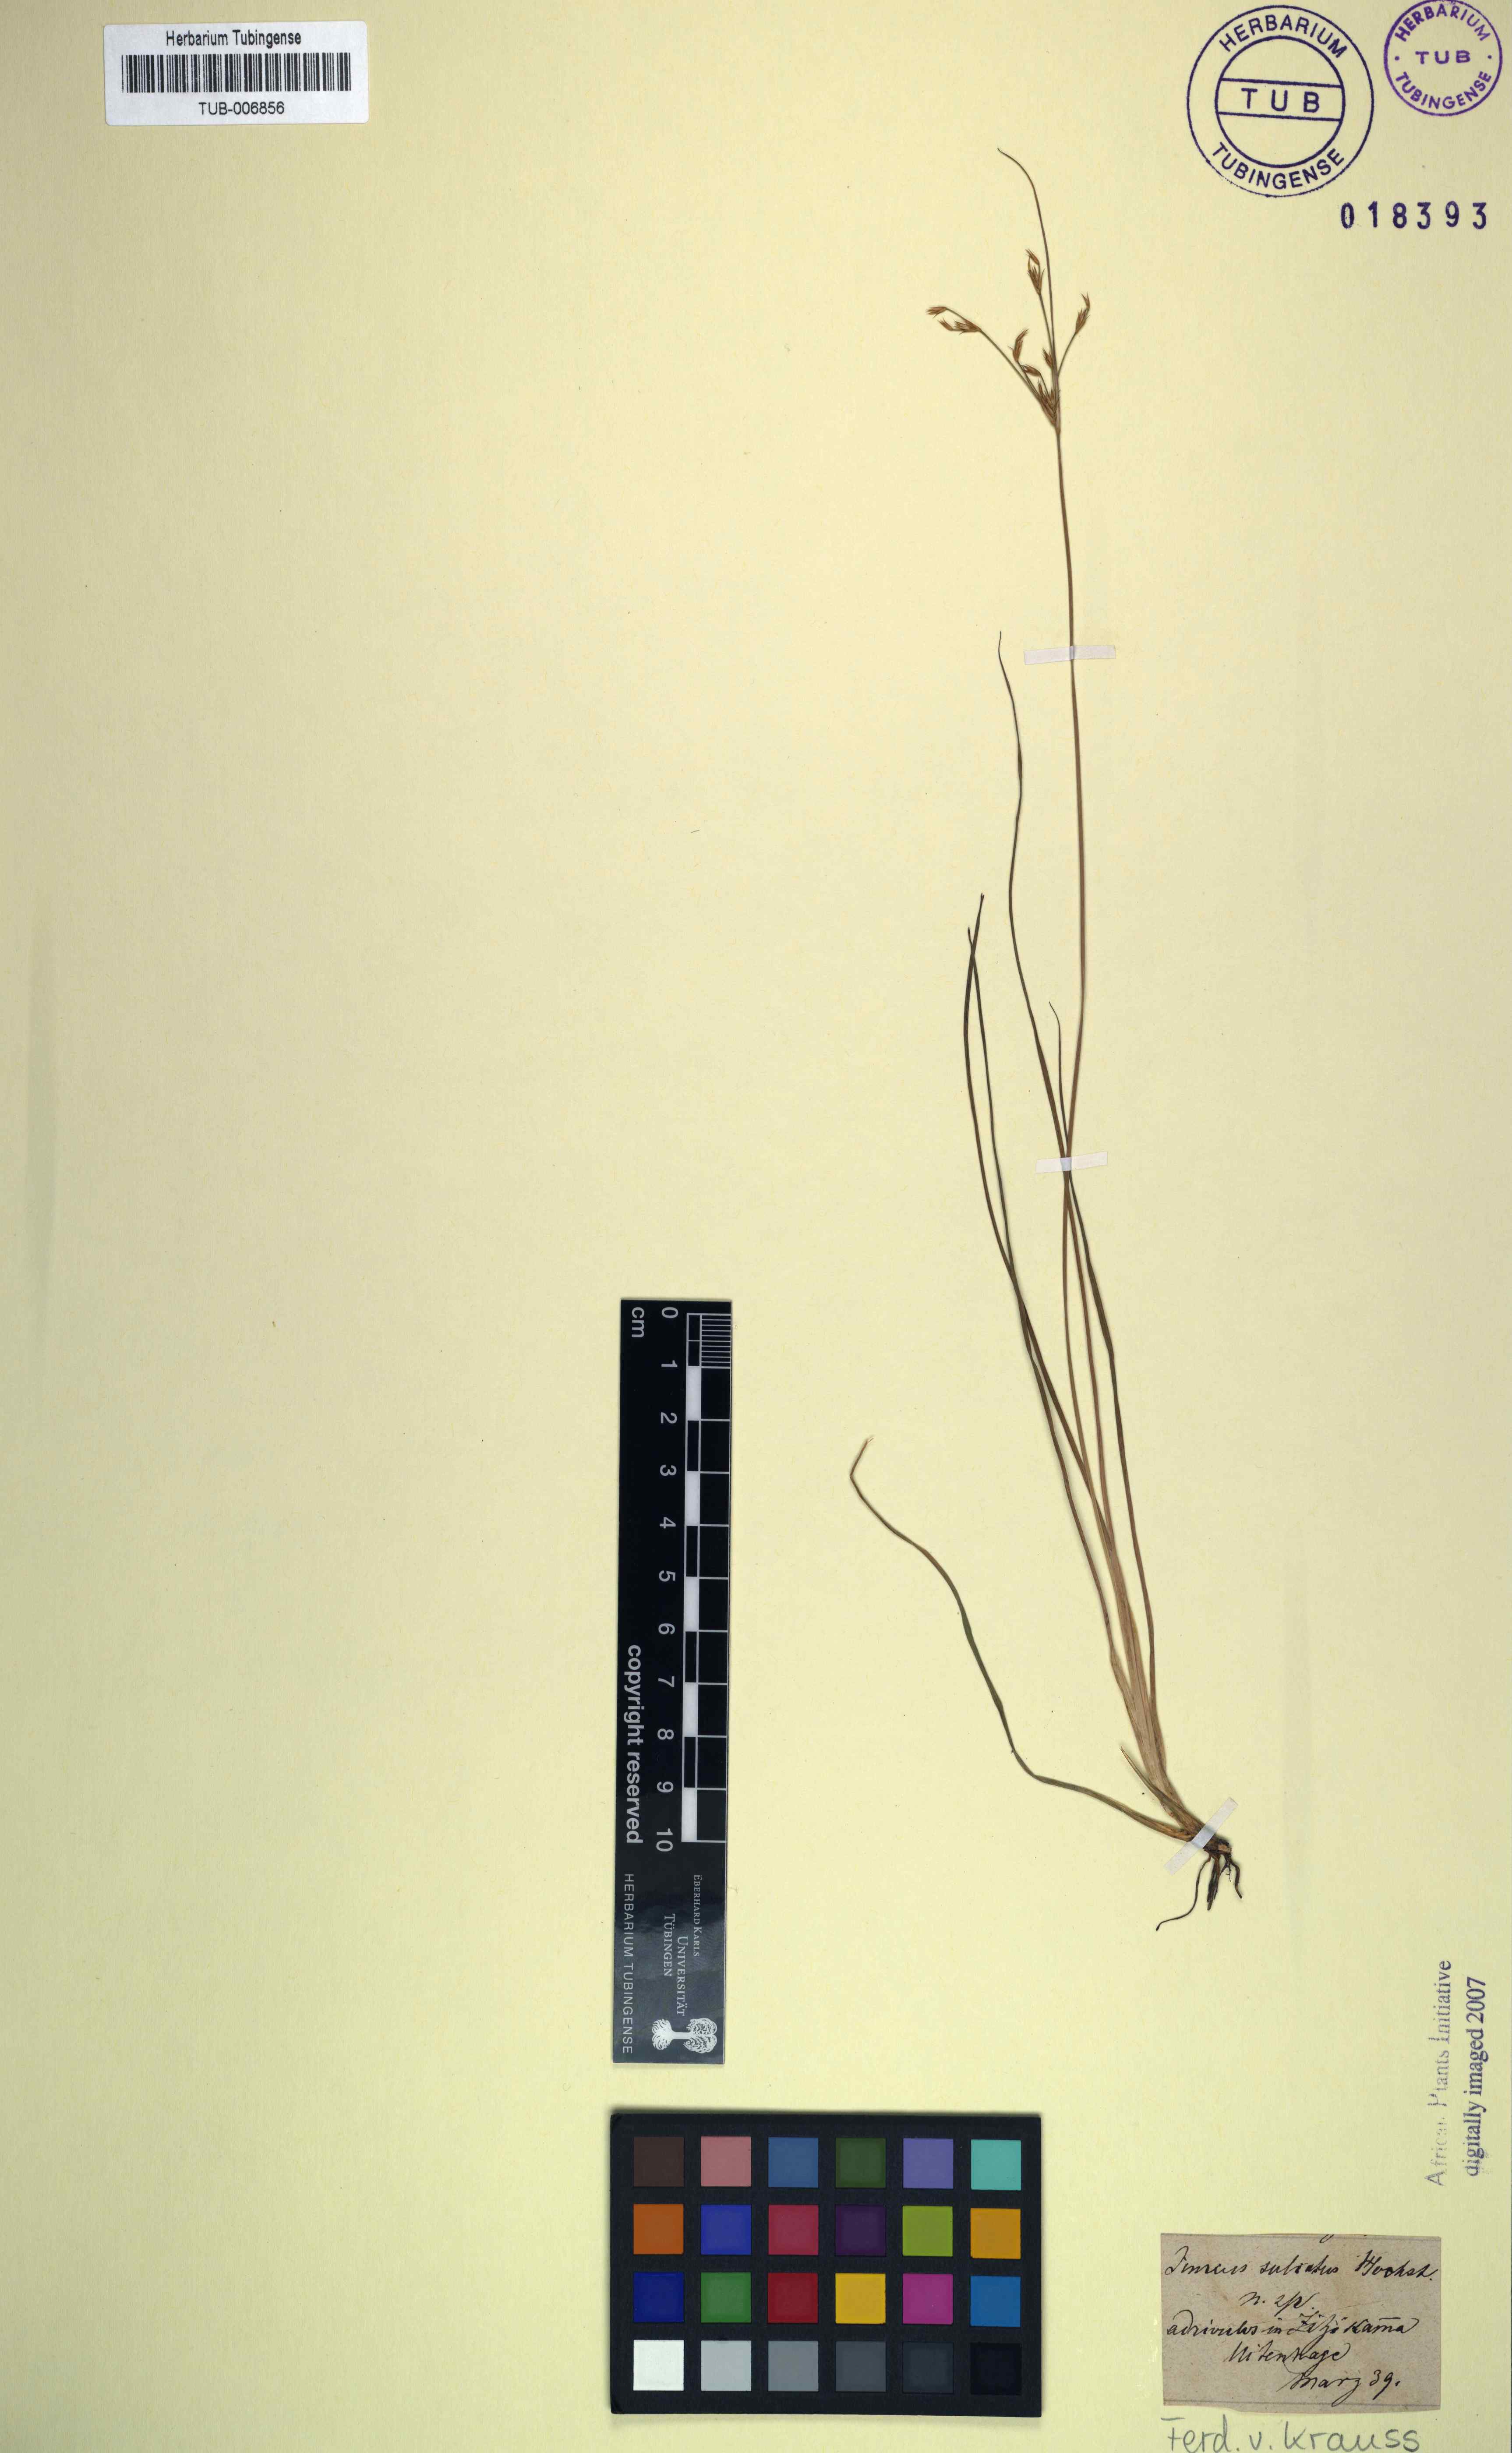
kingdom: Plantae
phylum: Tracheophyta
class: Liliopsida
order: Poales
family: Juncaceae
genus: Juncus
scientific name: Juncus capensis
